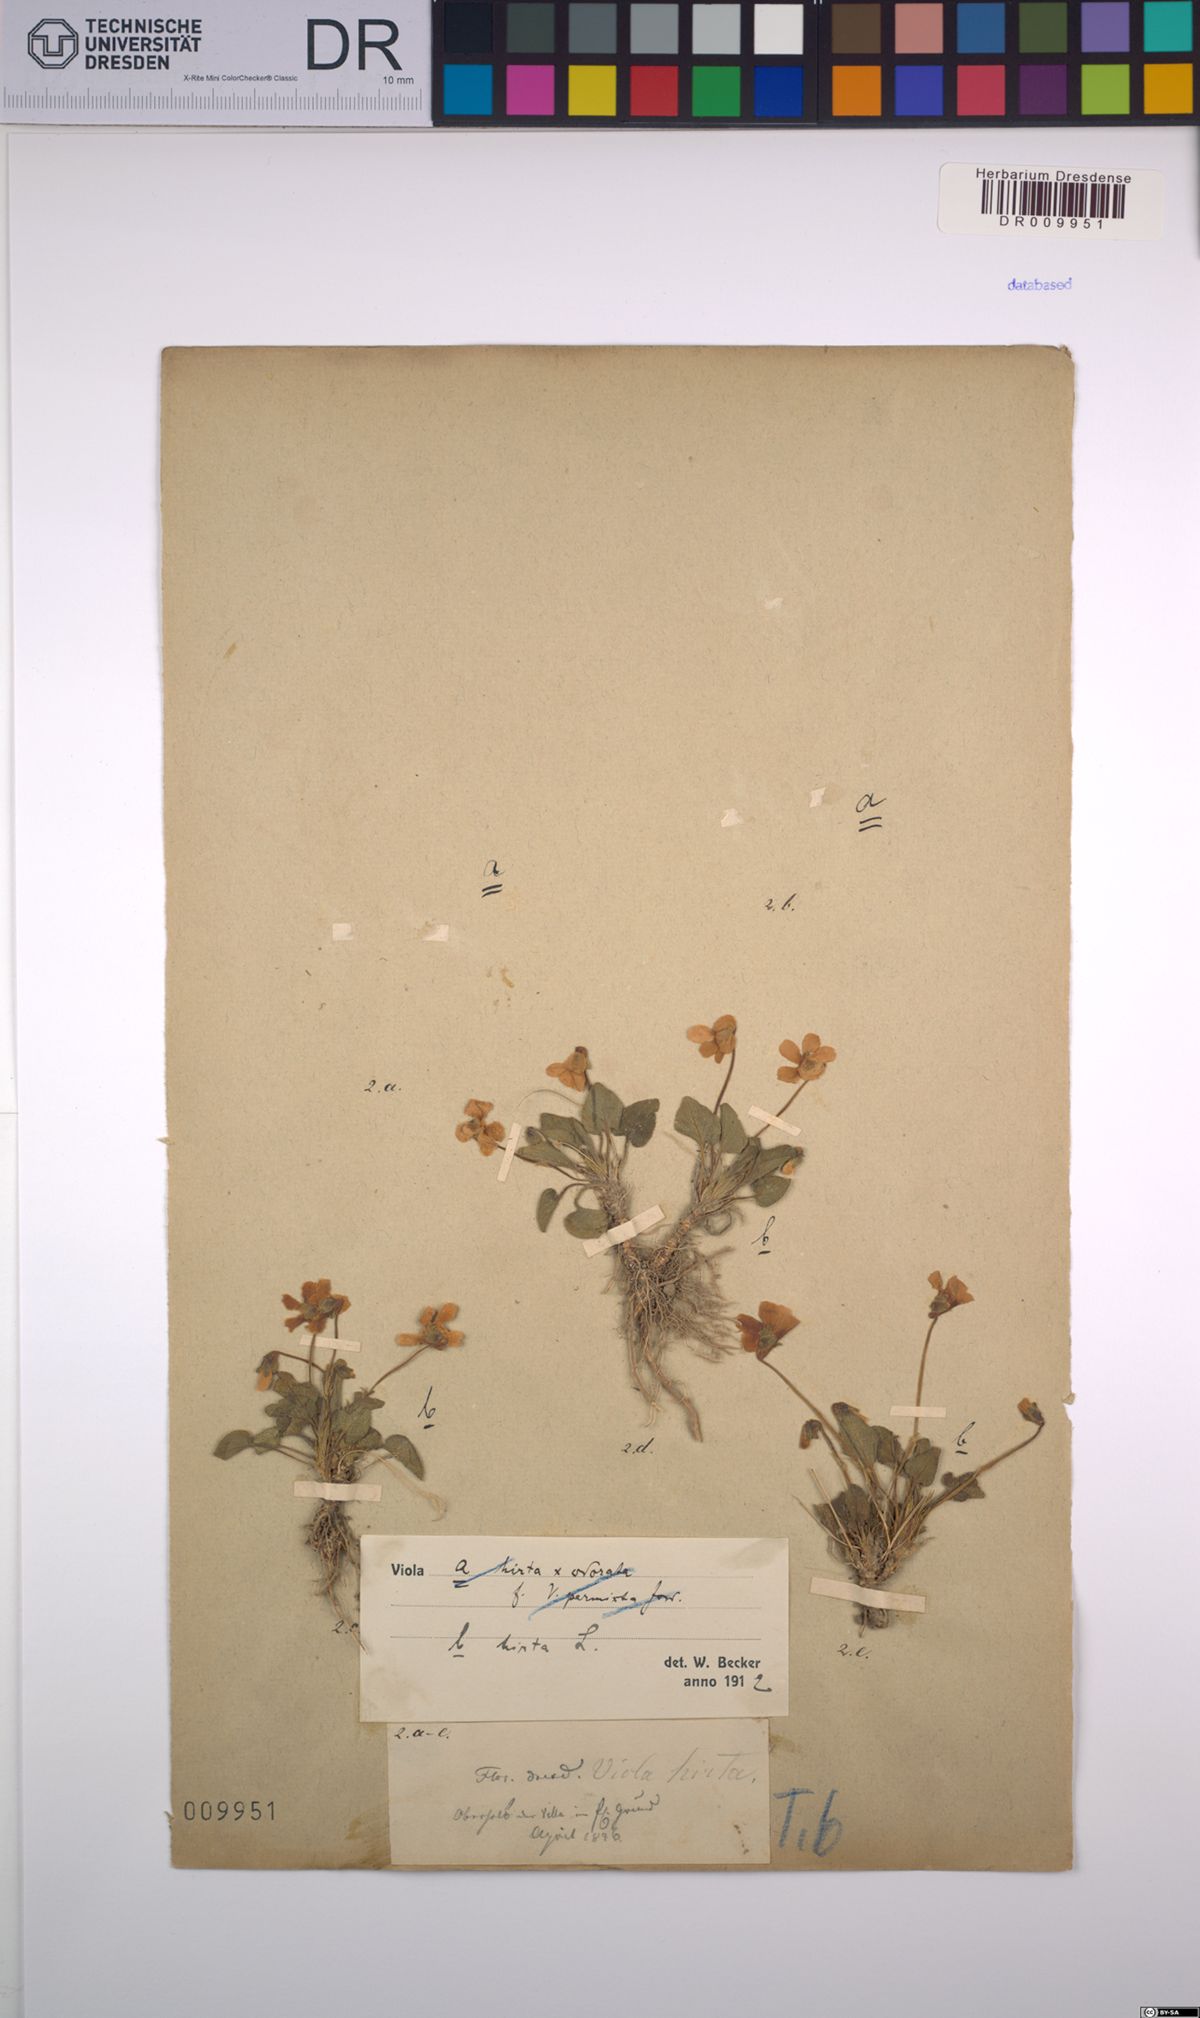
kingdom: Plantae
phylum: Tracheophyta
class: Magnoliopsida
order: Malpighiales
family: Violaceae
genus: Viola
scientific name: Viola hirta
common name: Hairy violet
